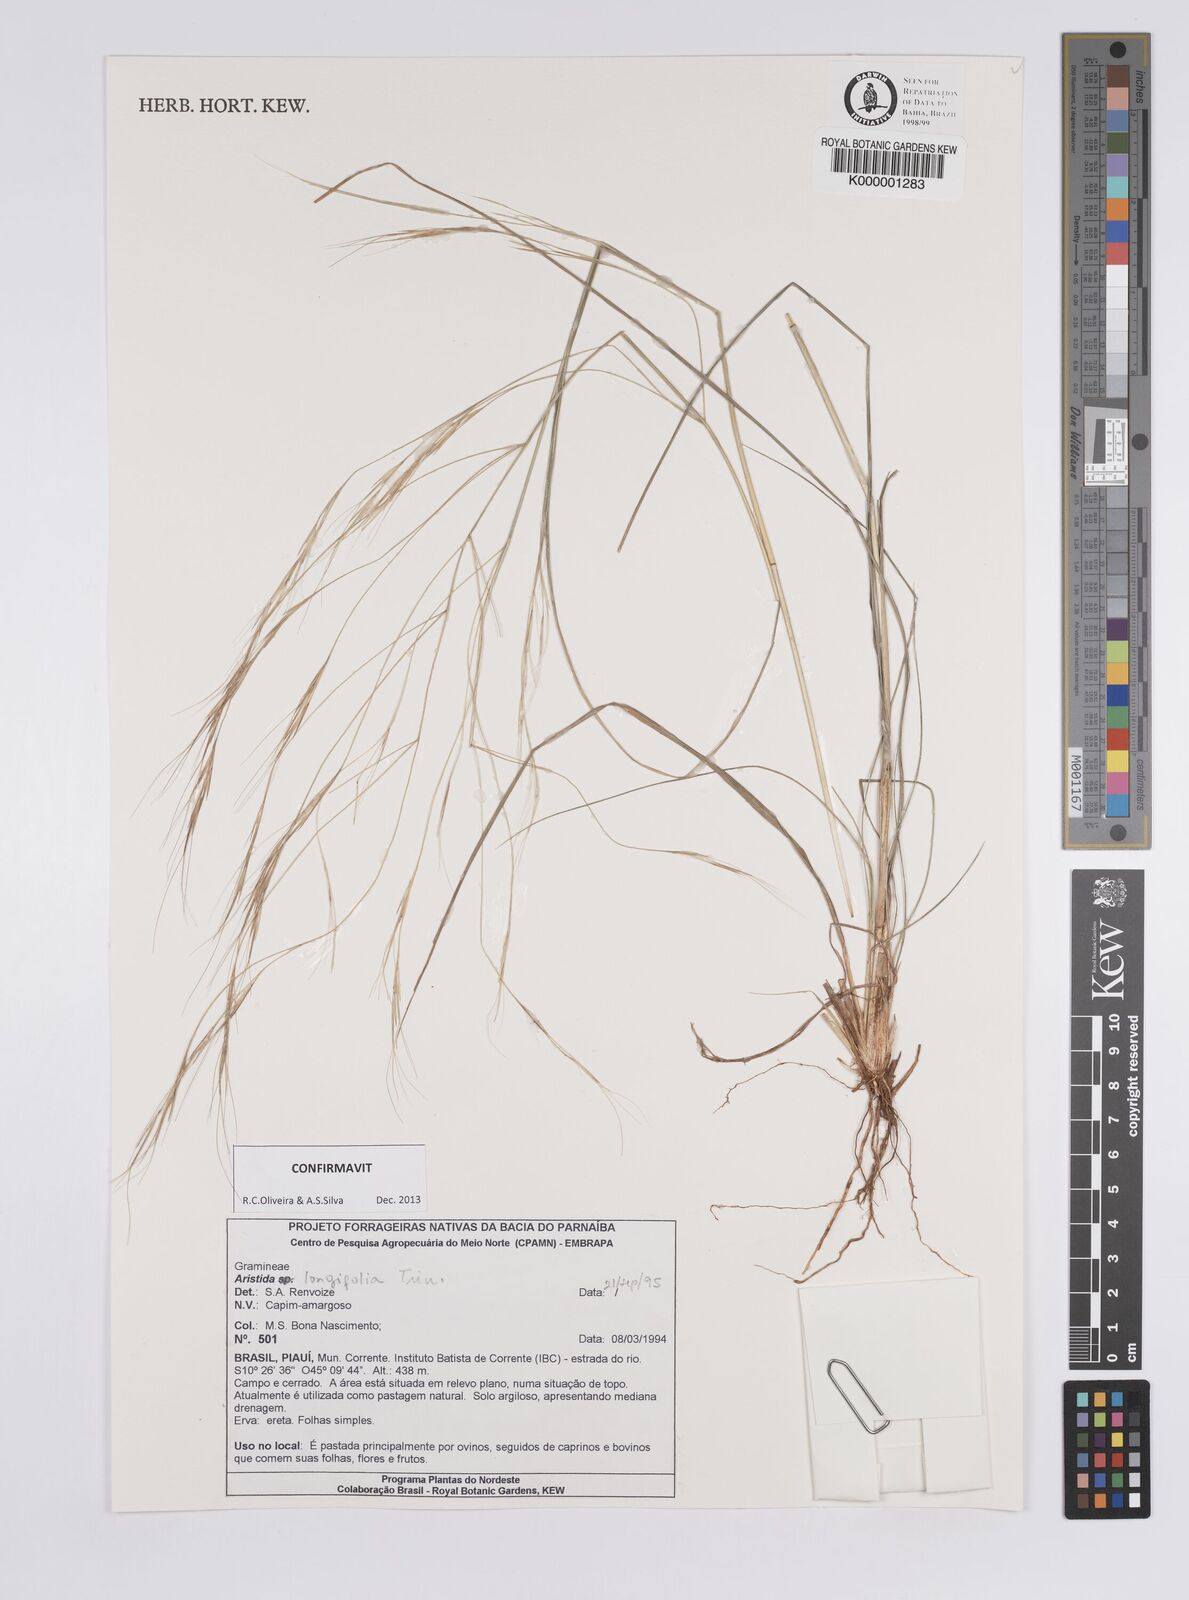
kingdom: Plantae
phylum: Tracheophyta
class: Liliopsida
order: Poales
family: Poaceae
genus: Aristida
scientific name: Aristida longifolia
